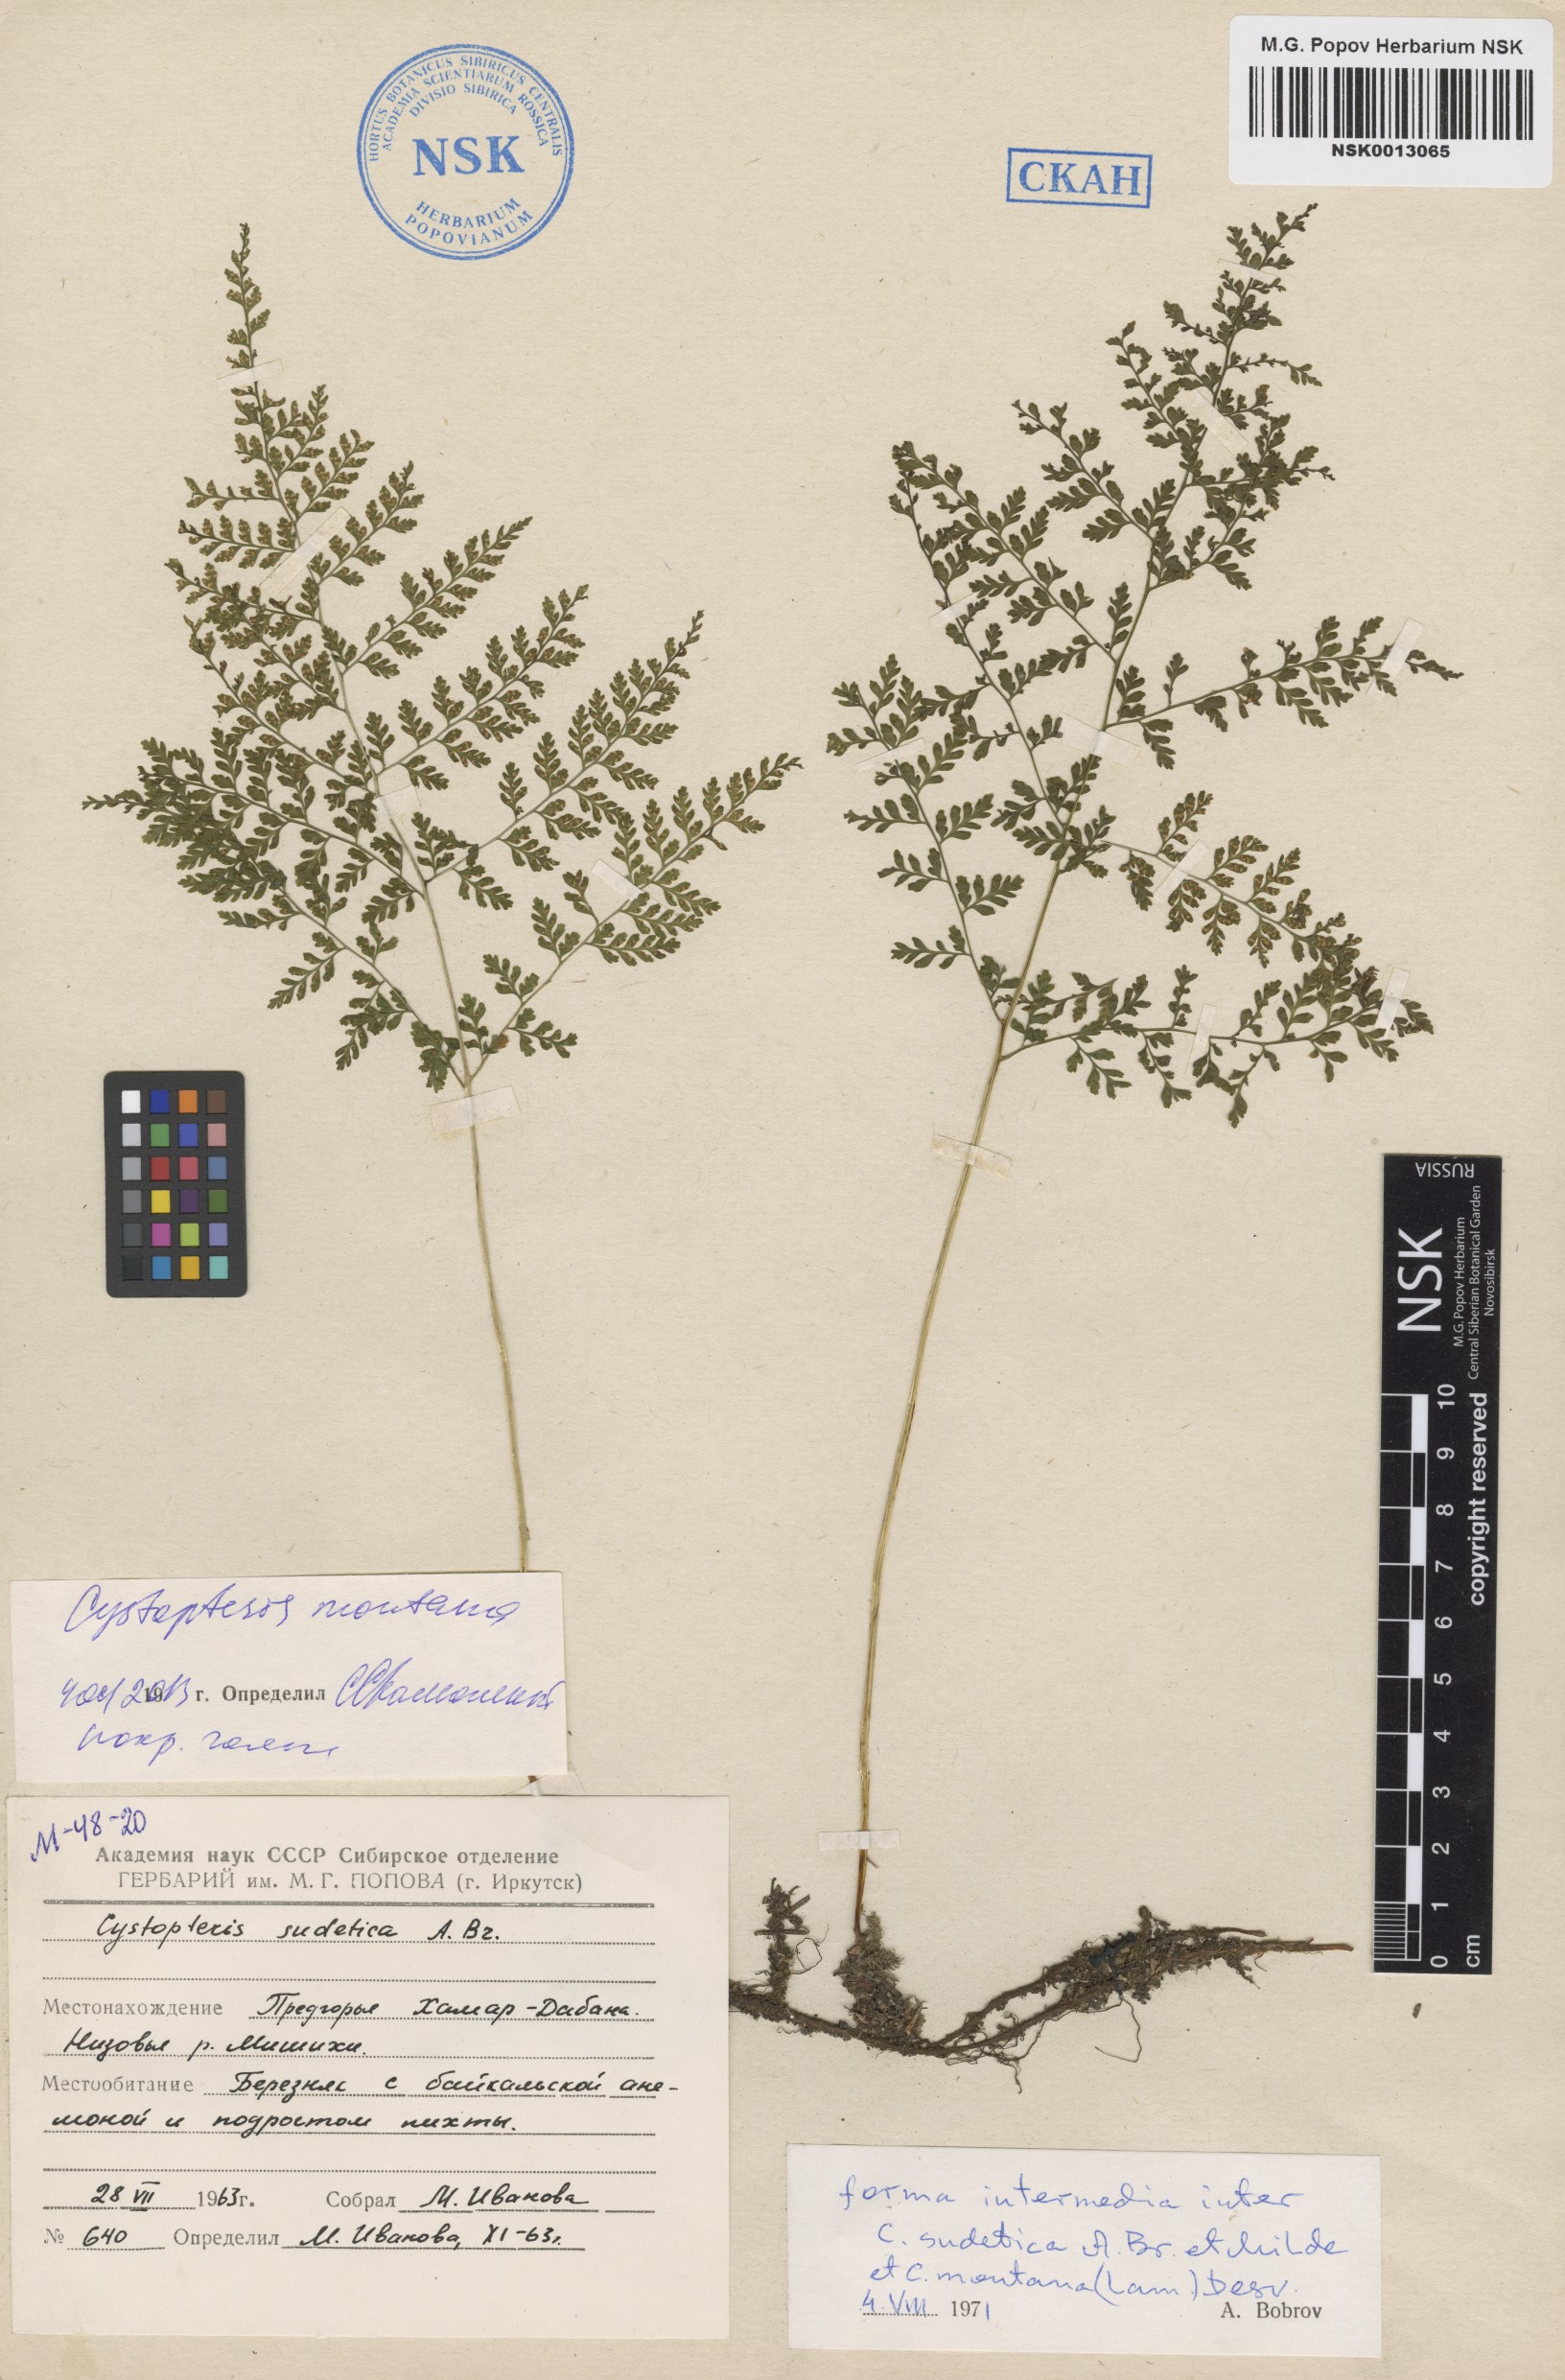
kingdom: Plantae
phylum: Tracheophyta
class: Polypodiopsida
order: Polypodiales
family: Cystopteridaceae
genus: Cystopteris
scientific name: Cystopteris montana
